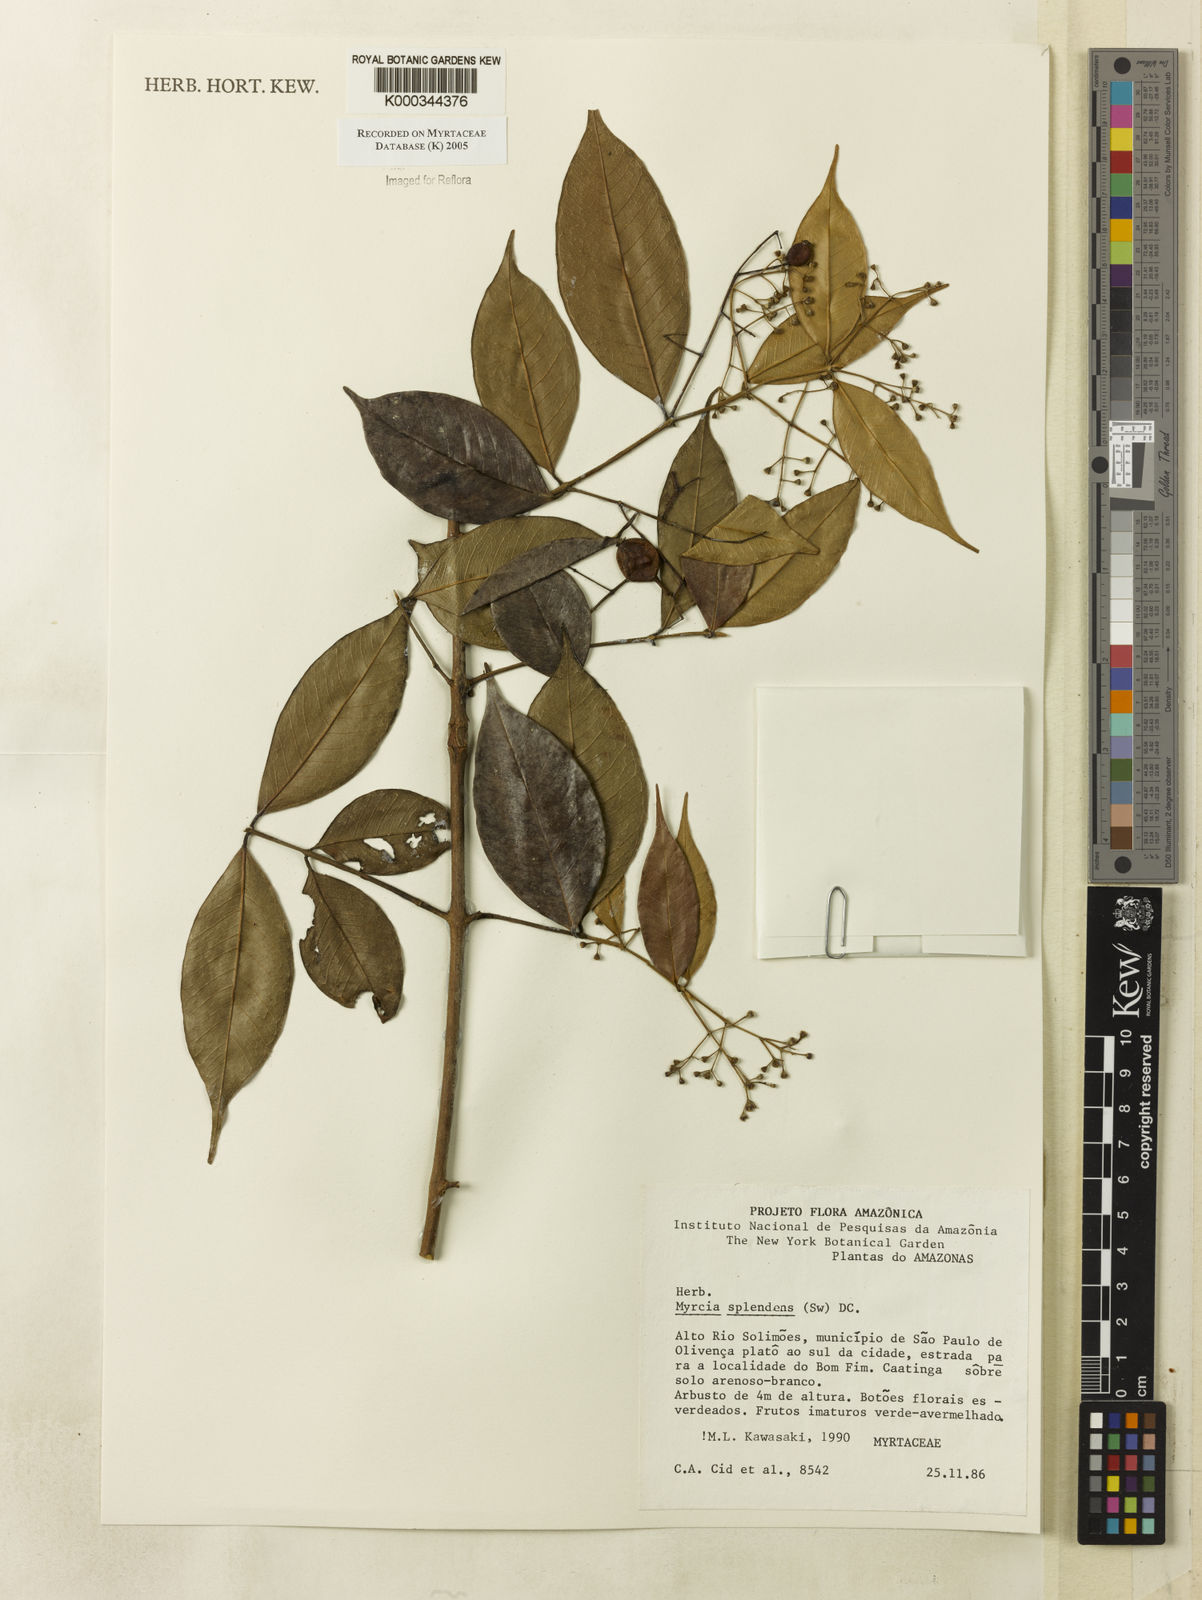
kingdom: Plantae
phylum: Tracheophyta
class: Magnoliopsida
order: Myrtales
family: Myrtaceae
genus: Myrcia
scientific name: Myrcia splendens
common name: Surinam cherry
